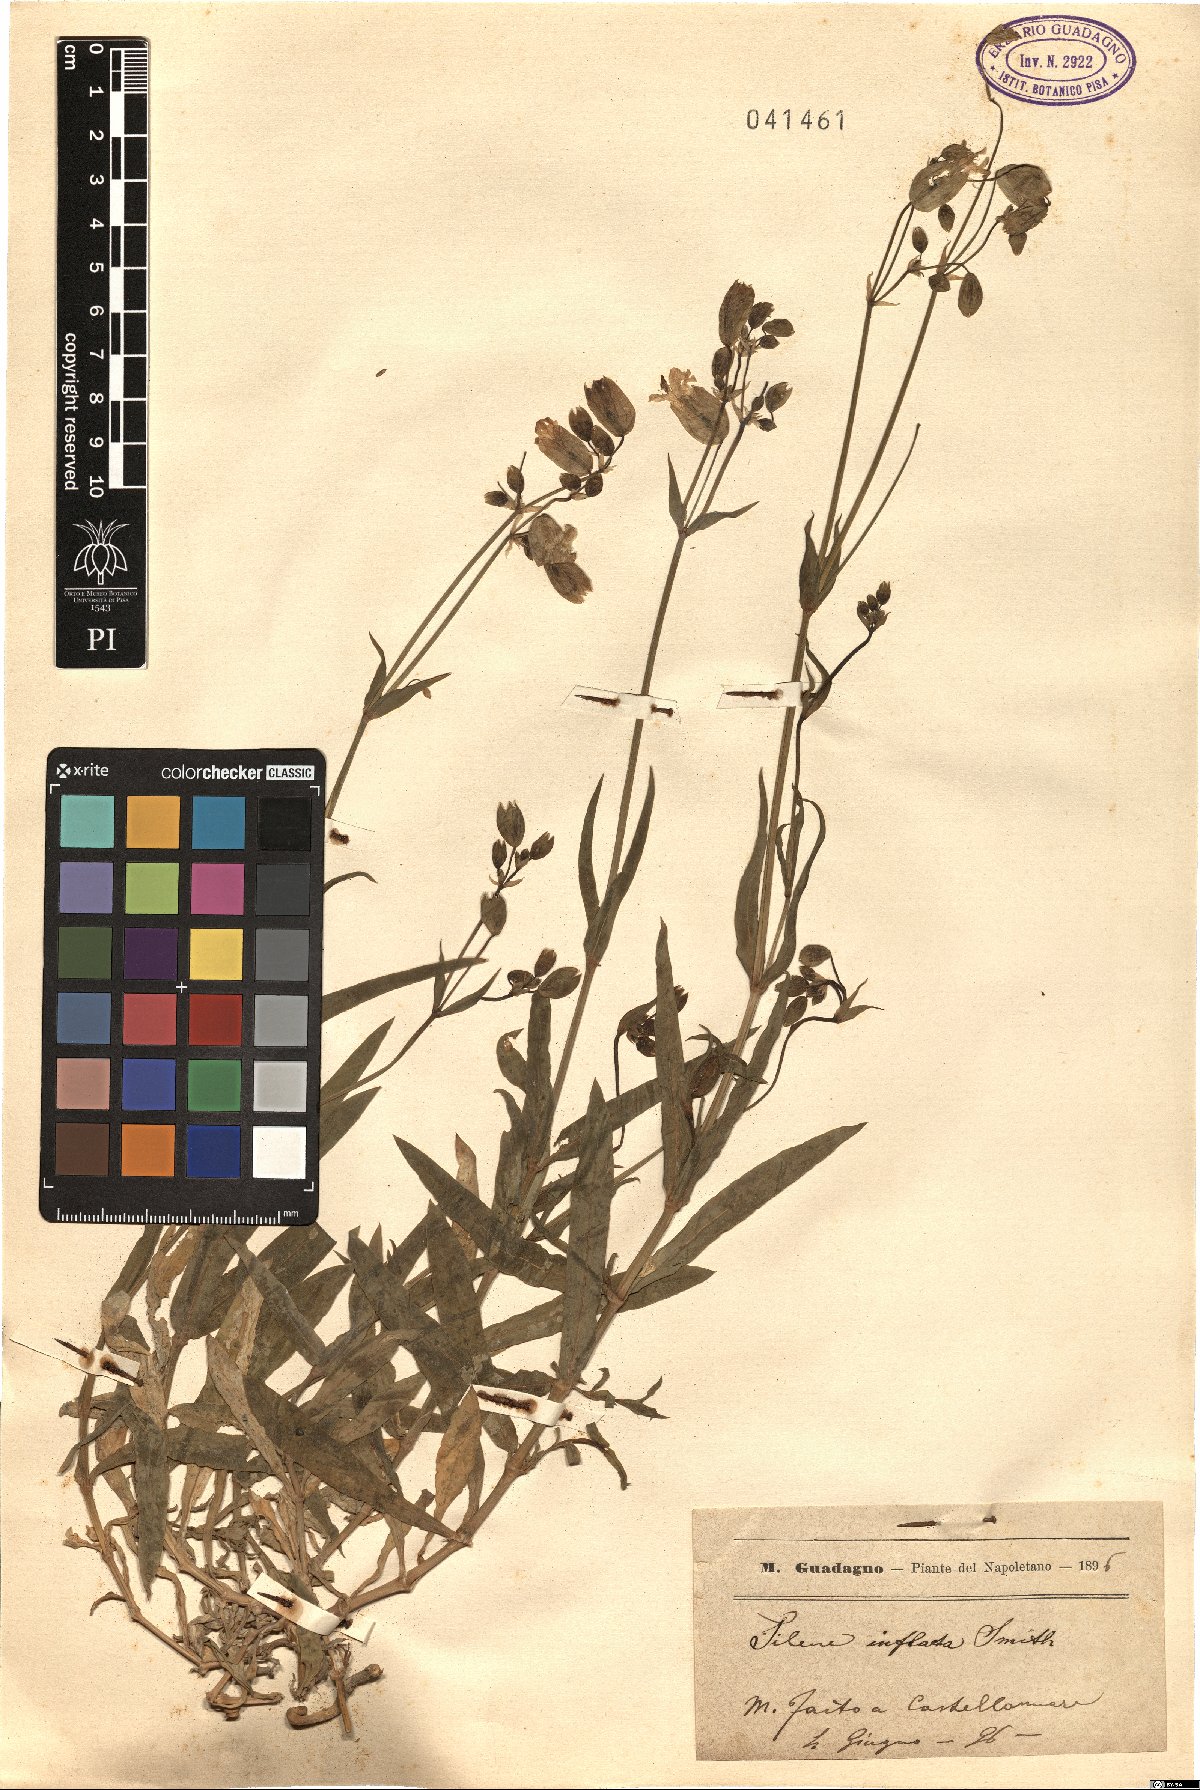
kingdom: Plantae
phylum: Tracheophyta
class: Magnoliopsida
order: Caryophyllales
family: Caryophyllaceae
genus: Silene
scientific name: Silene vulgaris
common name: Bladder campion
